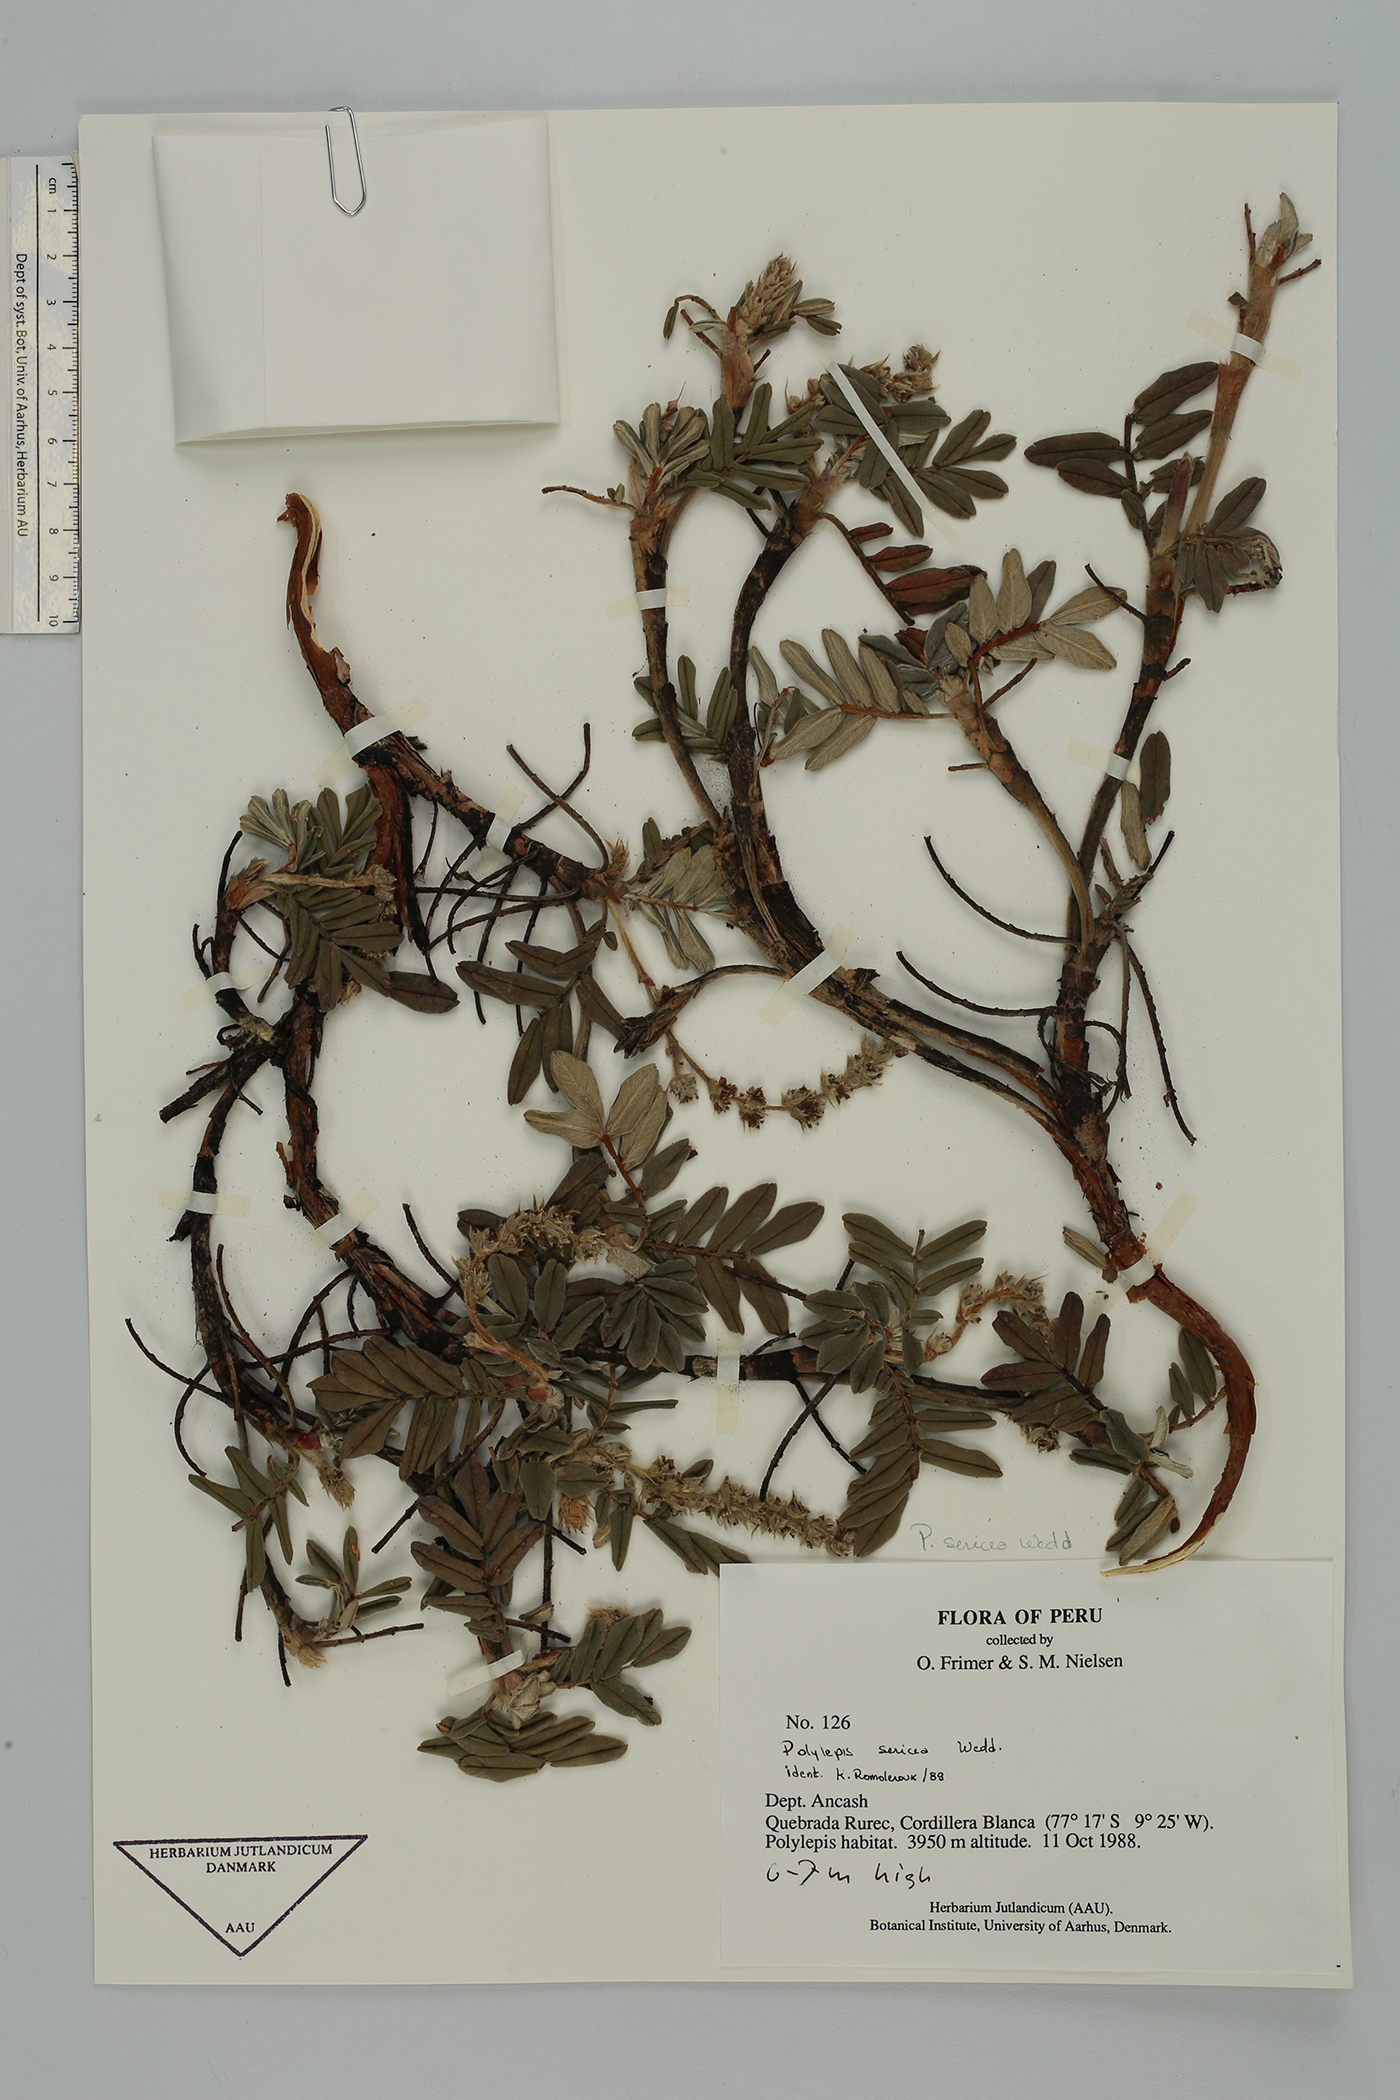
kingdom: Plantae
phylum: Tracheophyta
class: Magnoliopsida
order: Rosales
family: Rosaceae
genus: Polylepis
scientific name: Polylepis sericea
